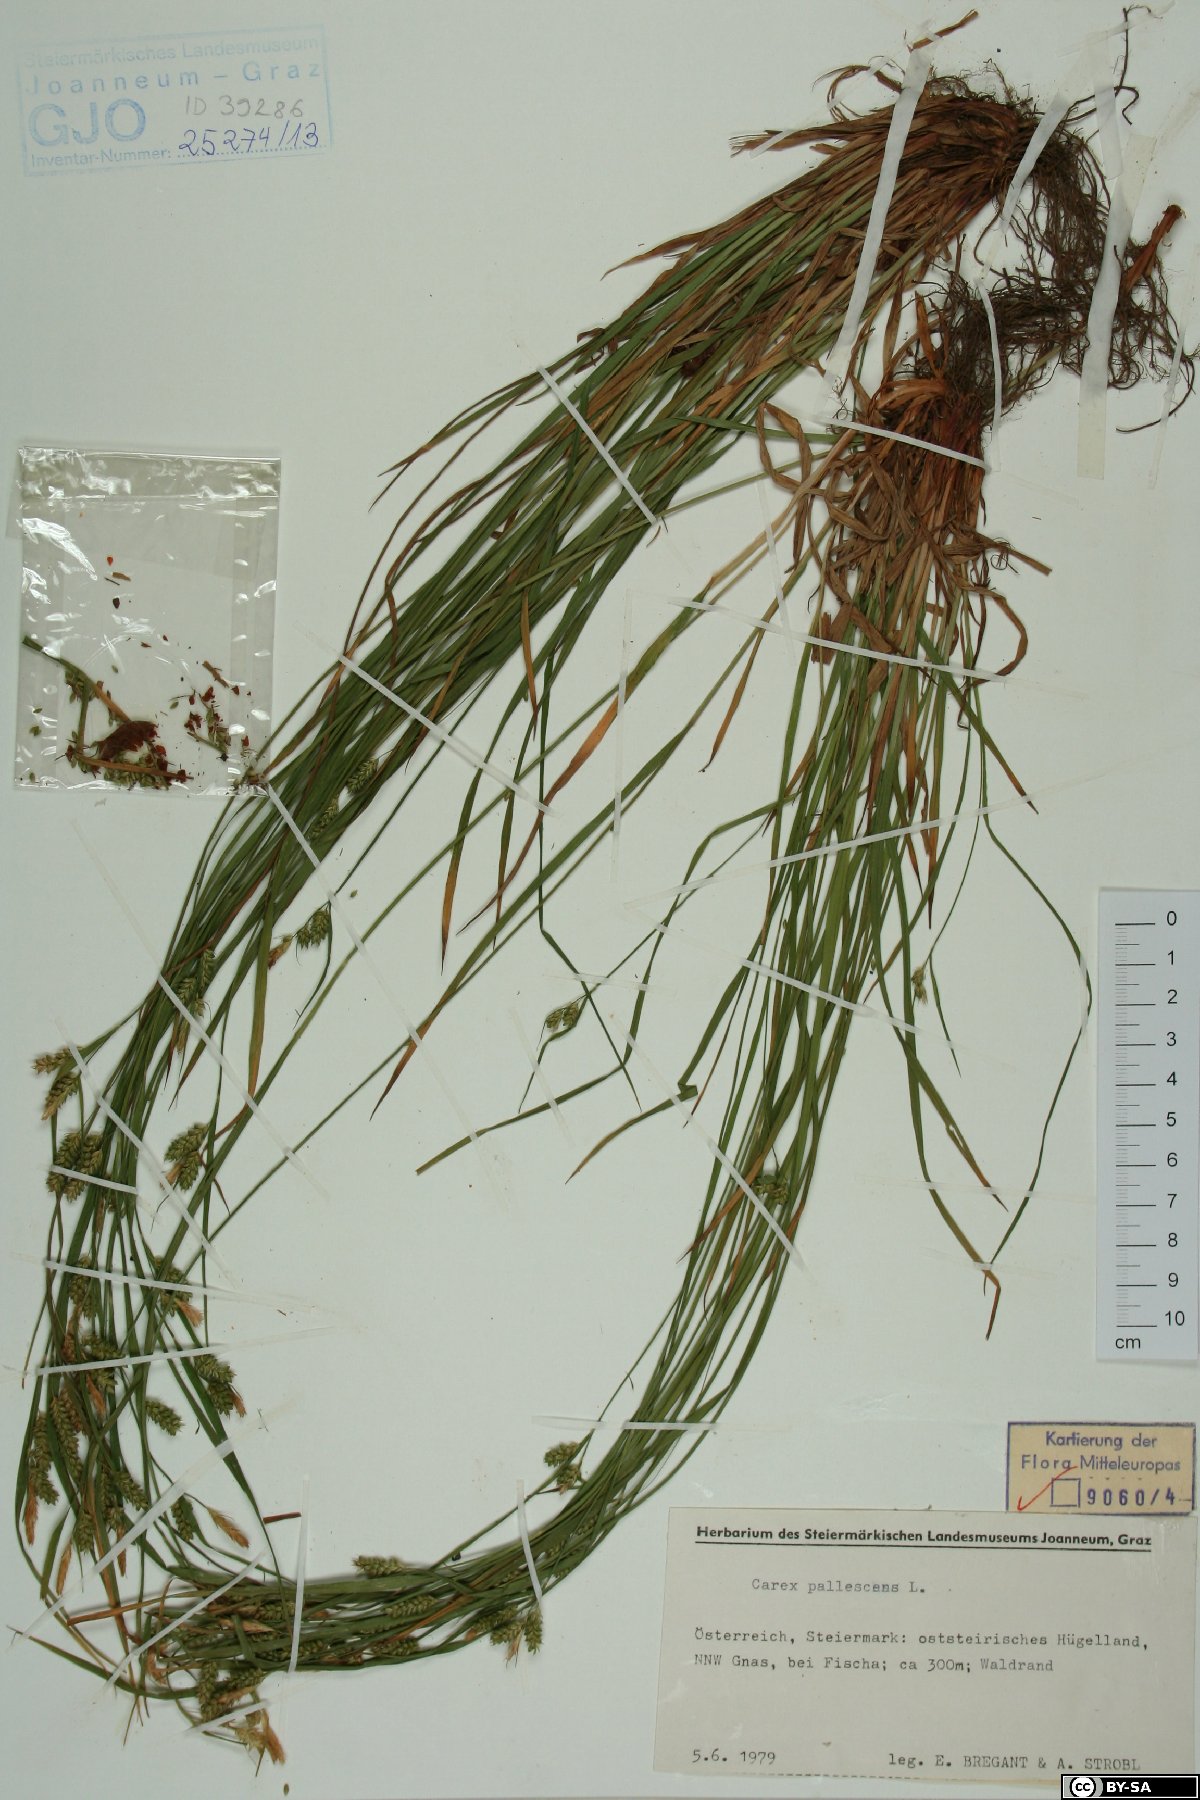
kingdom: Plantae
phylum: Tracheophyta
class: Liliopsida
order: Poales
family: Cyperaceae
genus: Carex
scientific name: Carex pallescens
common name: Pale sedge
